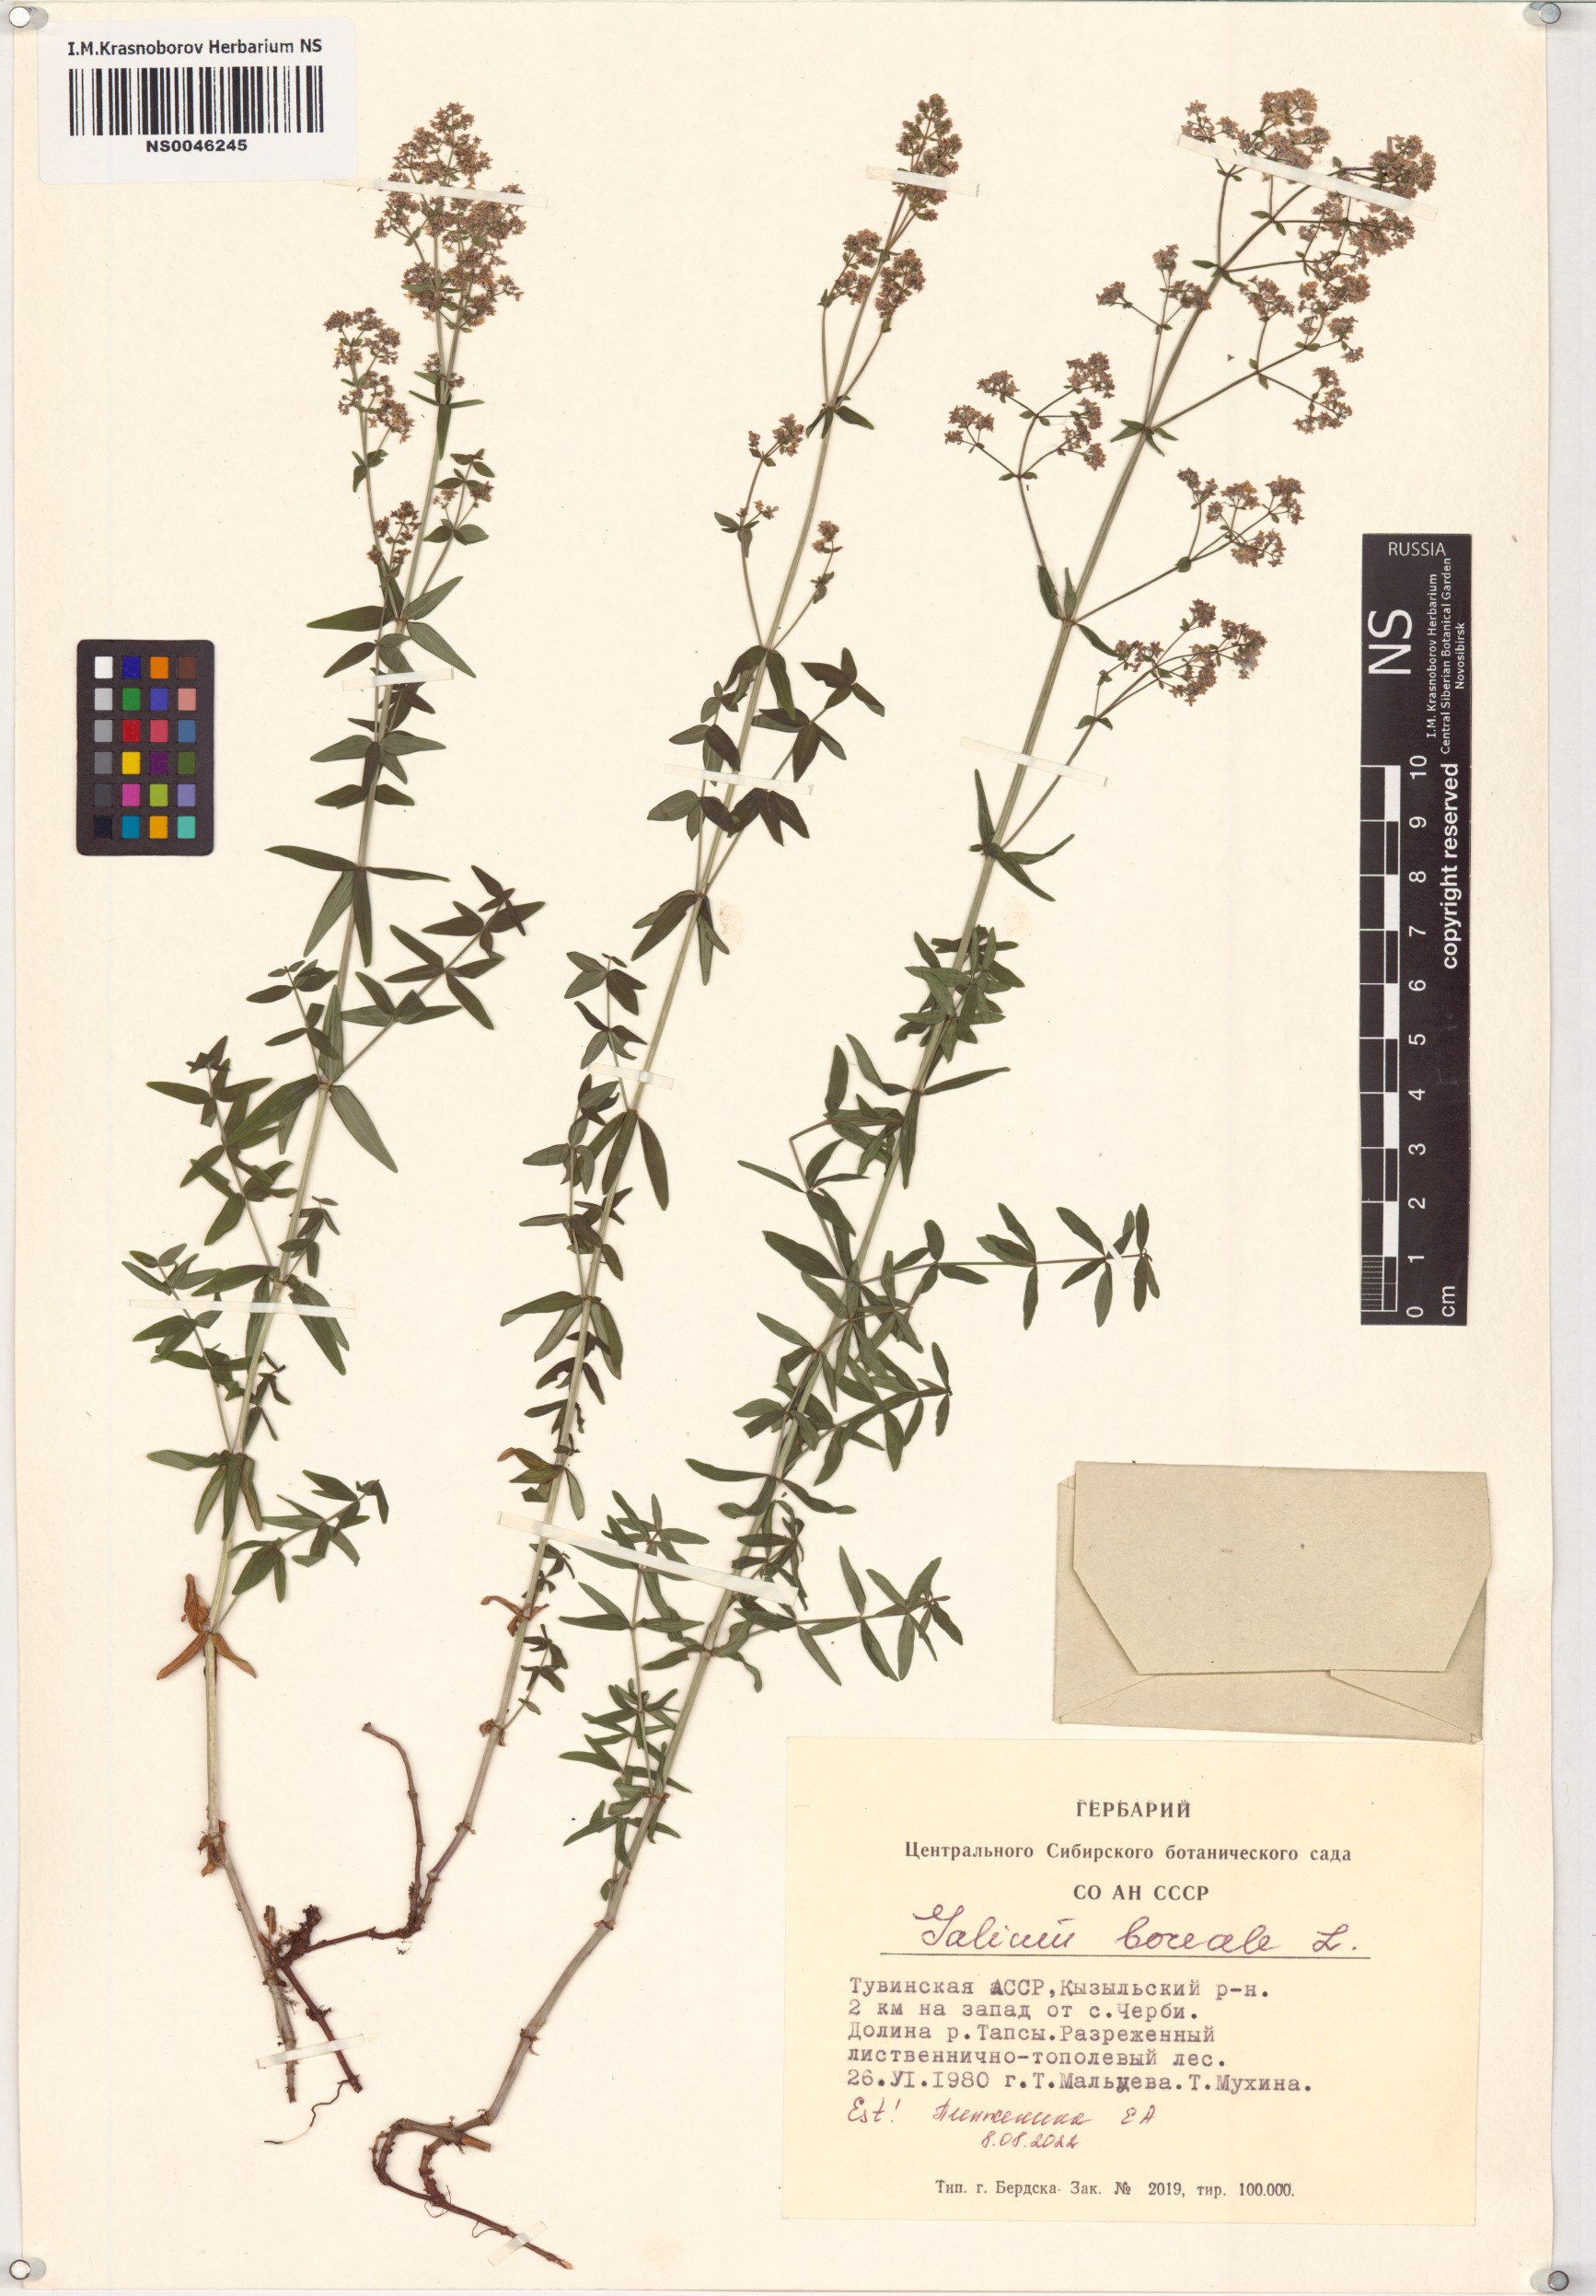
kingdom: Plantae
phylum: Tracheophyta
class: Magnoliopsida
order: Gentianales
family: Rubiaceae
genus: Galium
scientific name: Galium boreale
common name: Northern bedstraw
